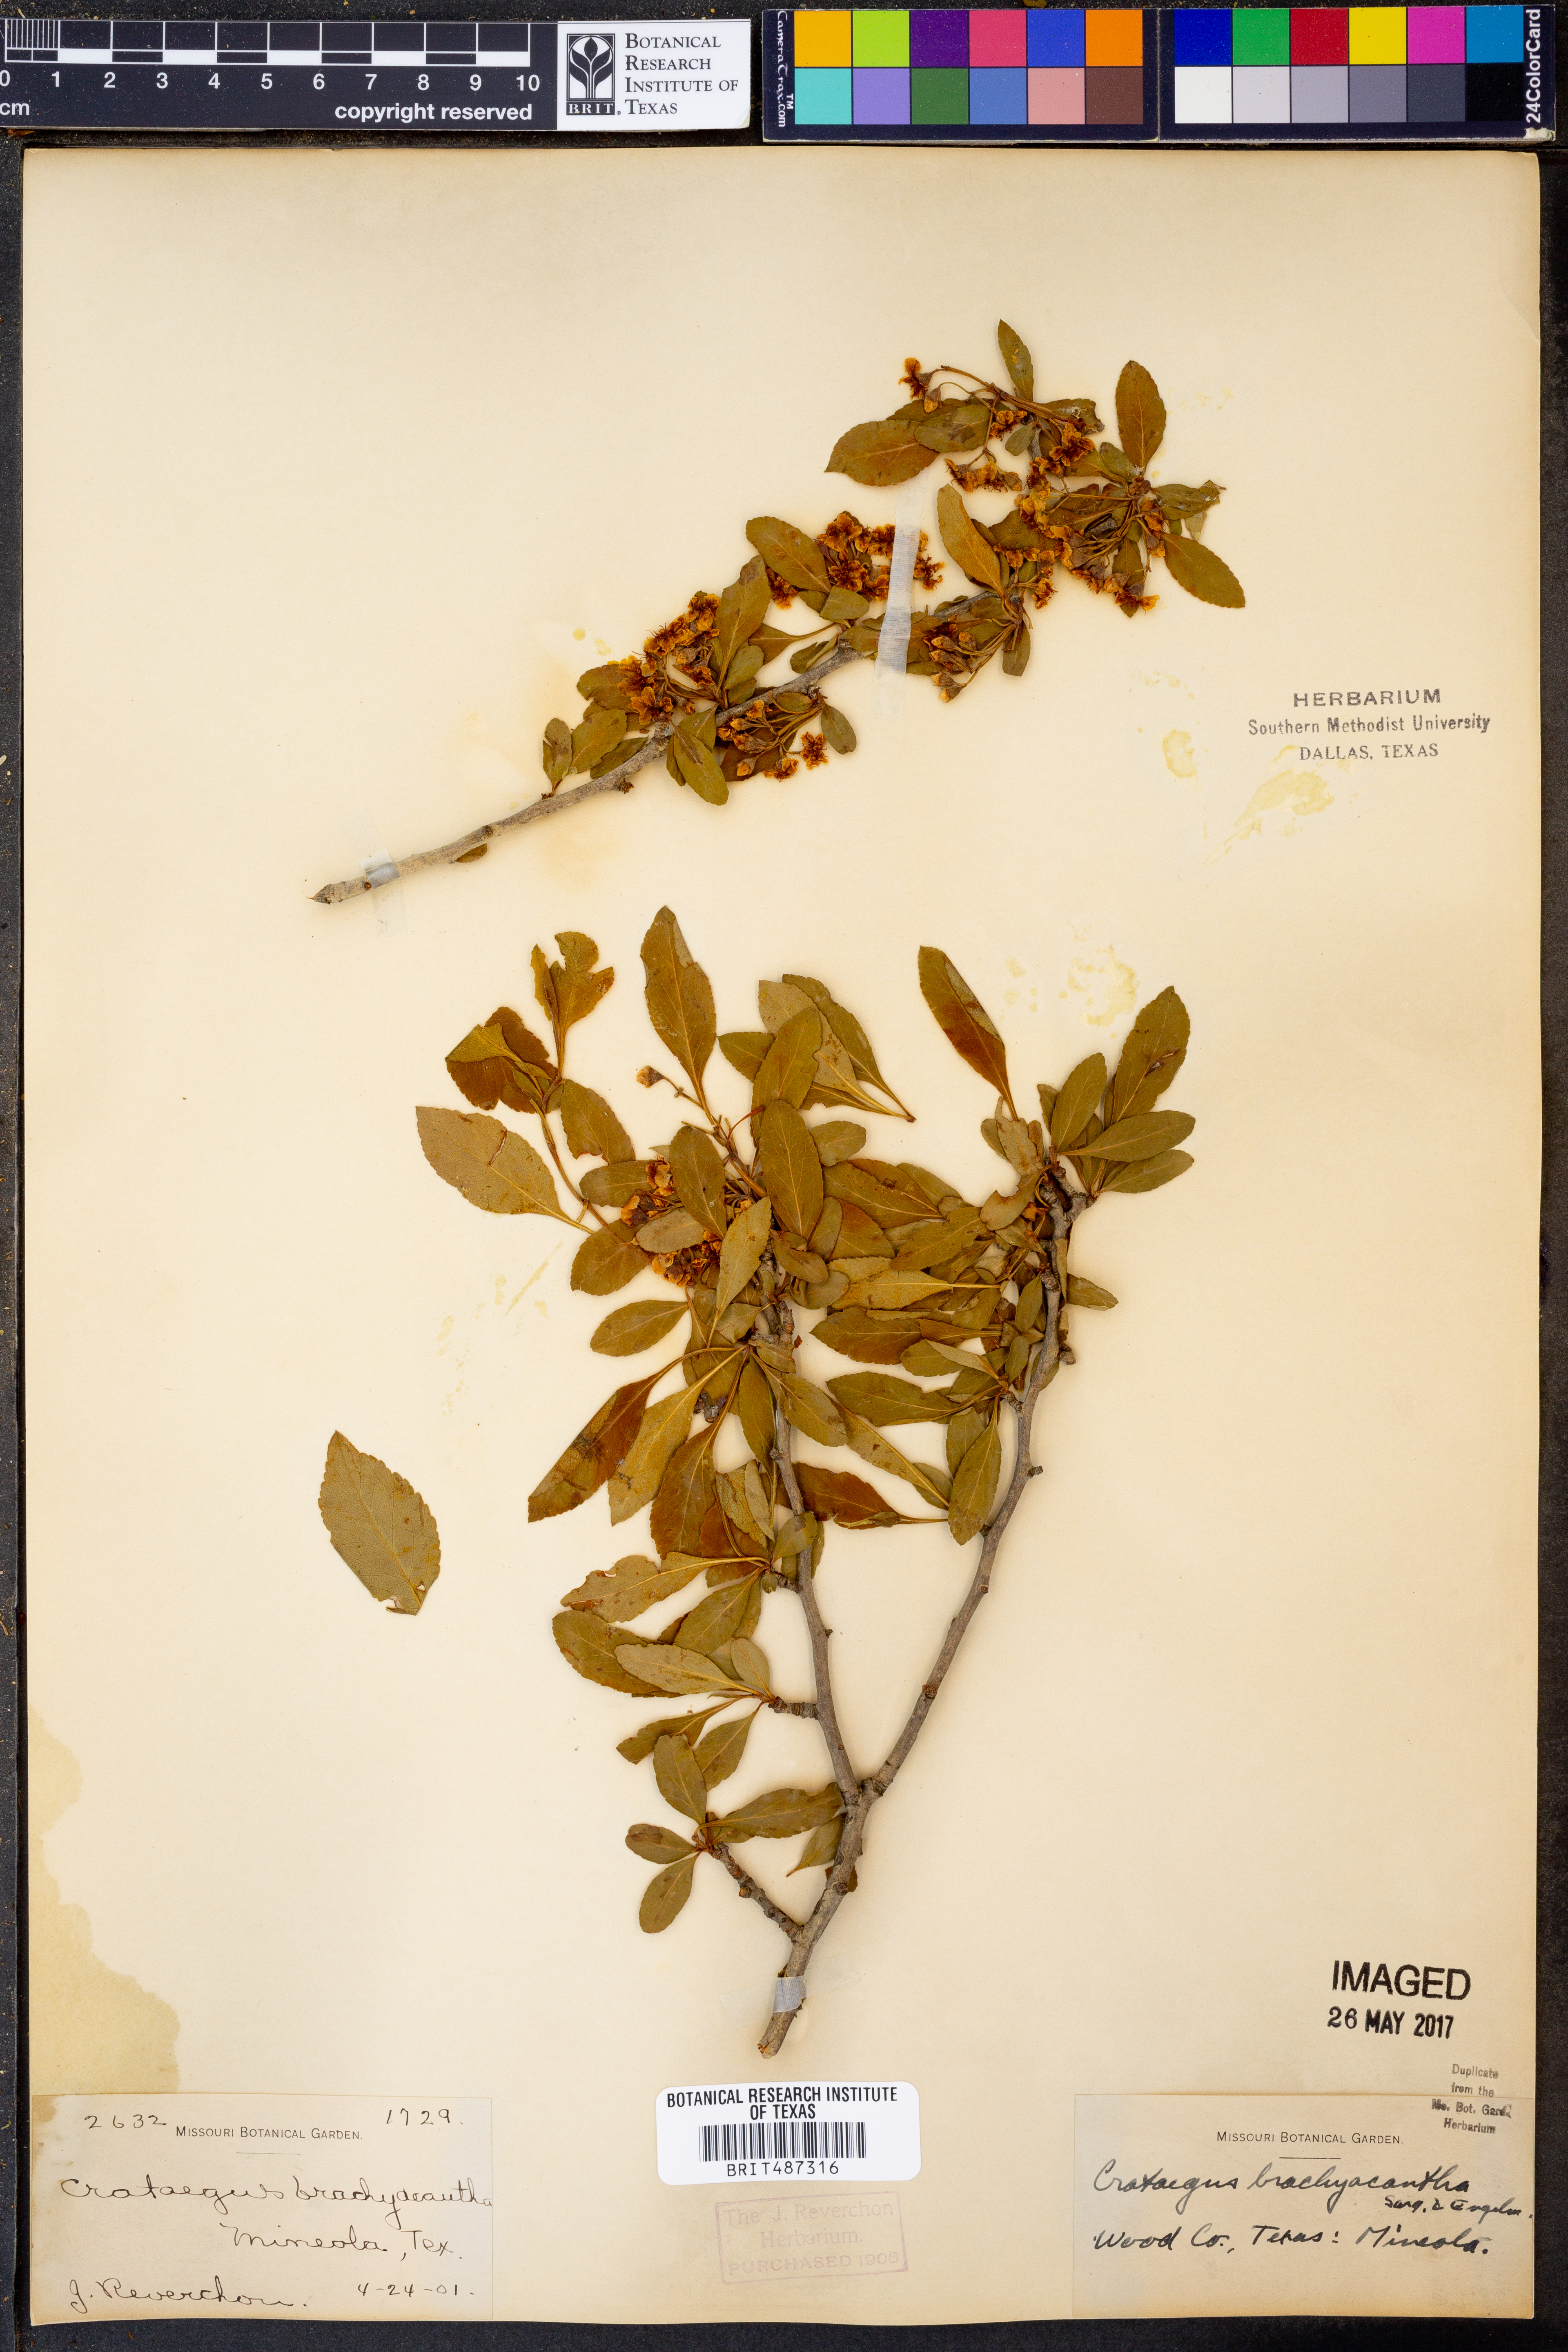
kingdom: Plantae
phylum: Tracheophyta
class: Magnoliopsida
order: Rosales
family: Rosaceae
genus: Crataegus
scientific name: Crataegus brachyacantha
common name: Blueberry-hawthorn
